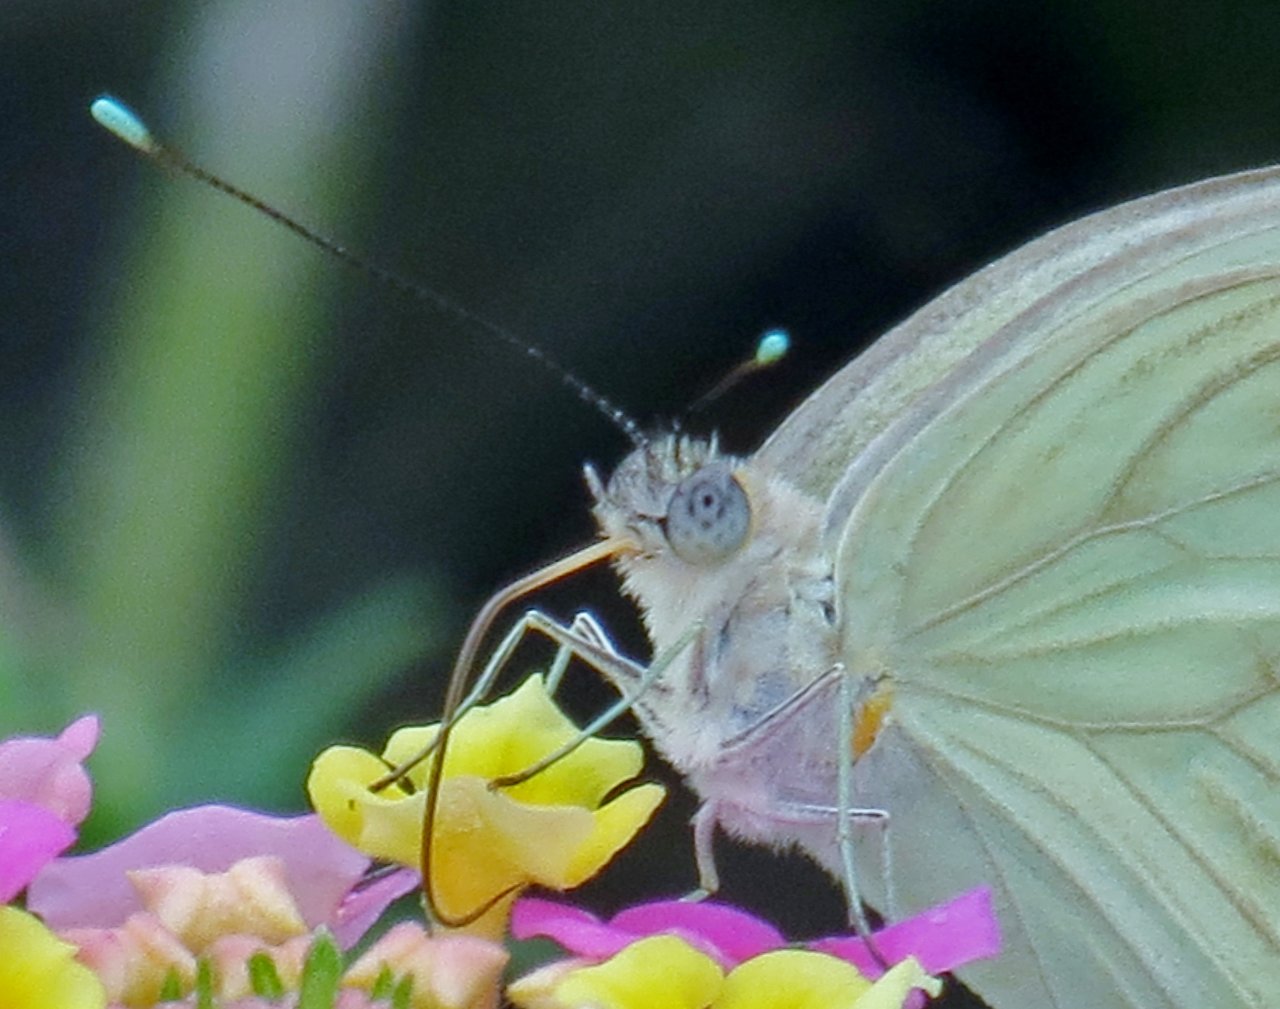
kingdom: Animalia
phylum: Arthropoda
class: Insecta
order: Lepidoptera
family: Pieridae
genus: Ascia
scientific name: Ascia monuste
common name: Great Southern White
